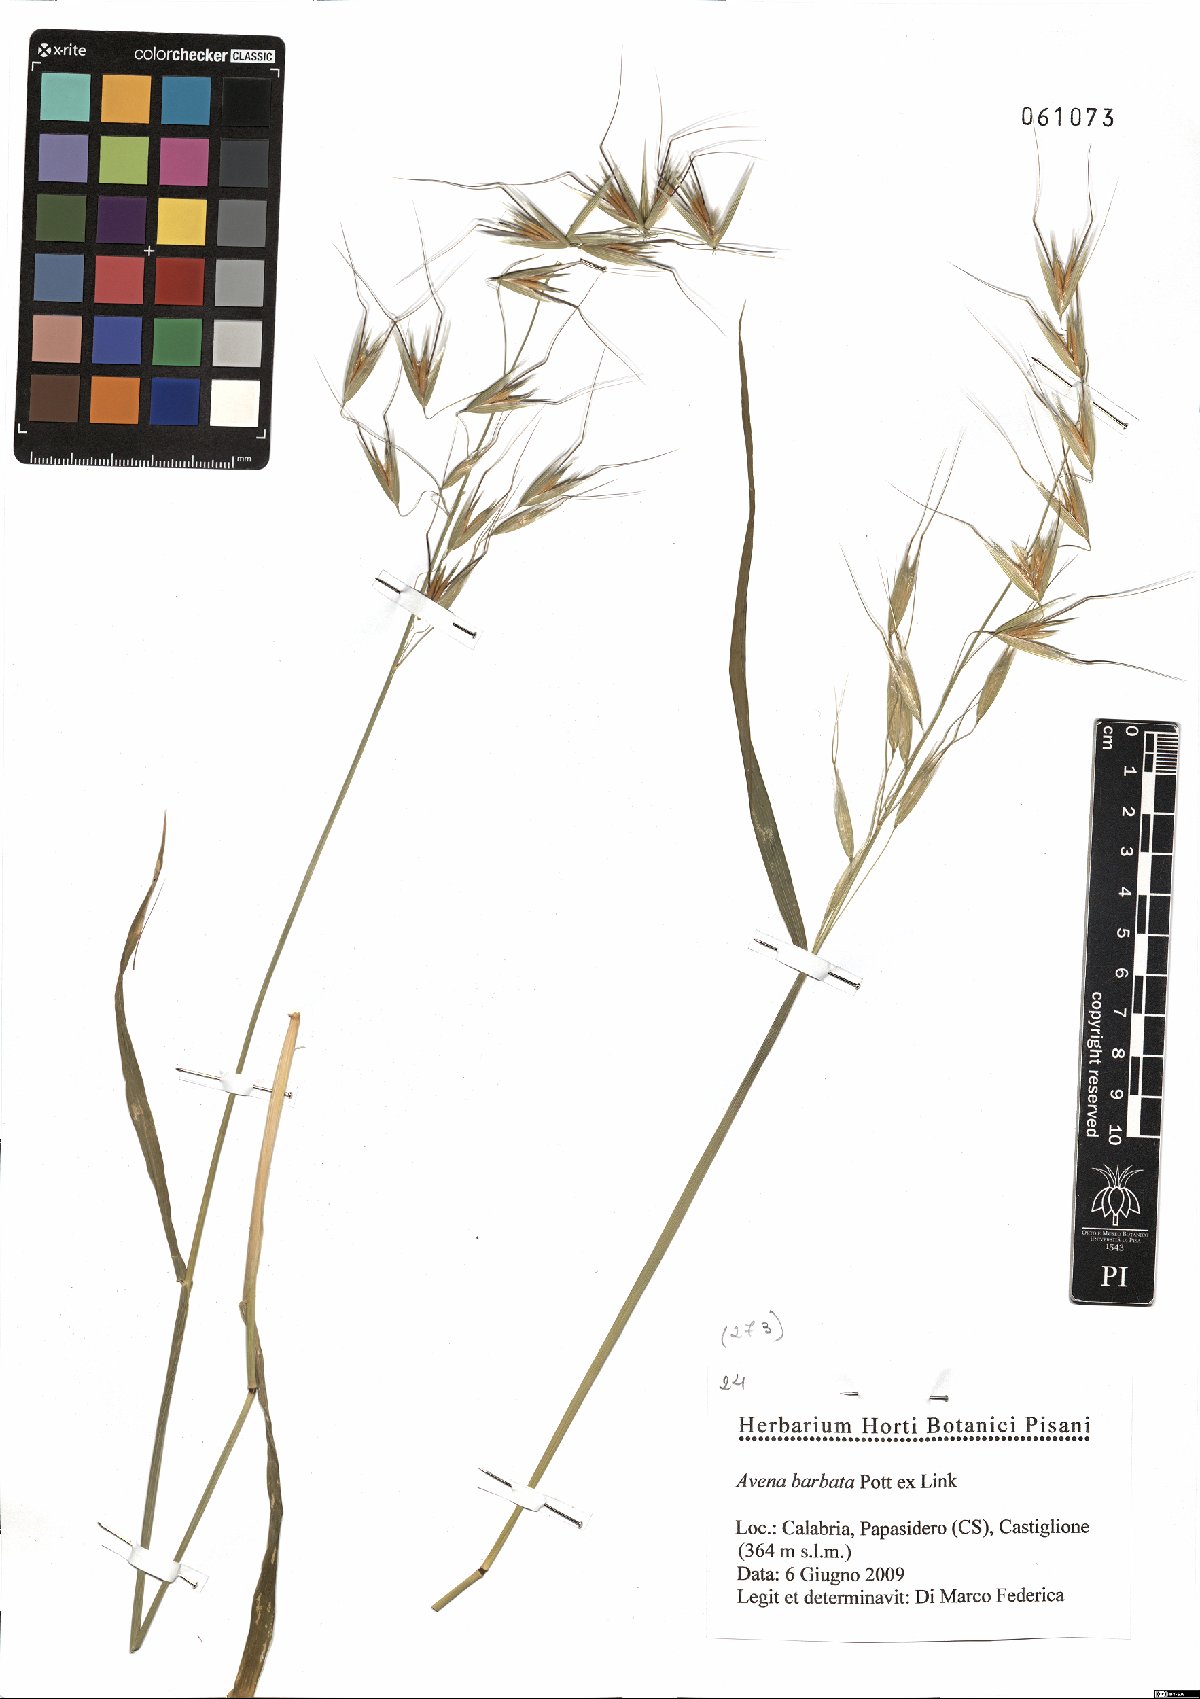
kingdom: Plantae
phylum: Tracheophyta
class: Liliopsida
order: Poales
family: Poaceae
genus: Avena
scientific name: Avena barbata
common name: Slender oat
